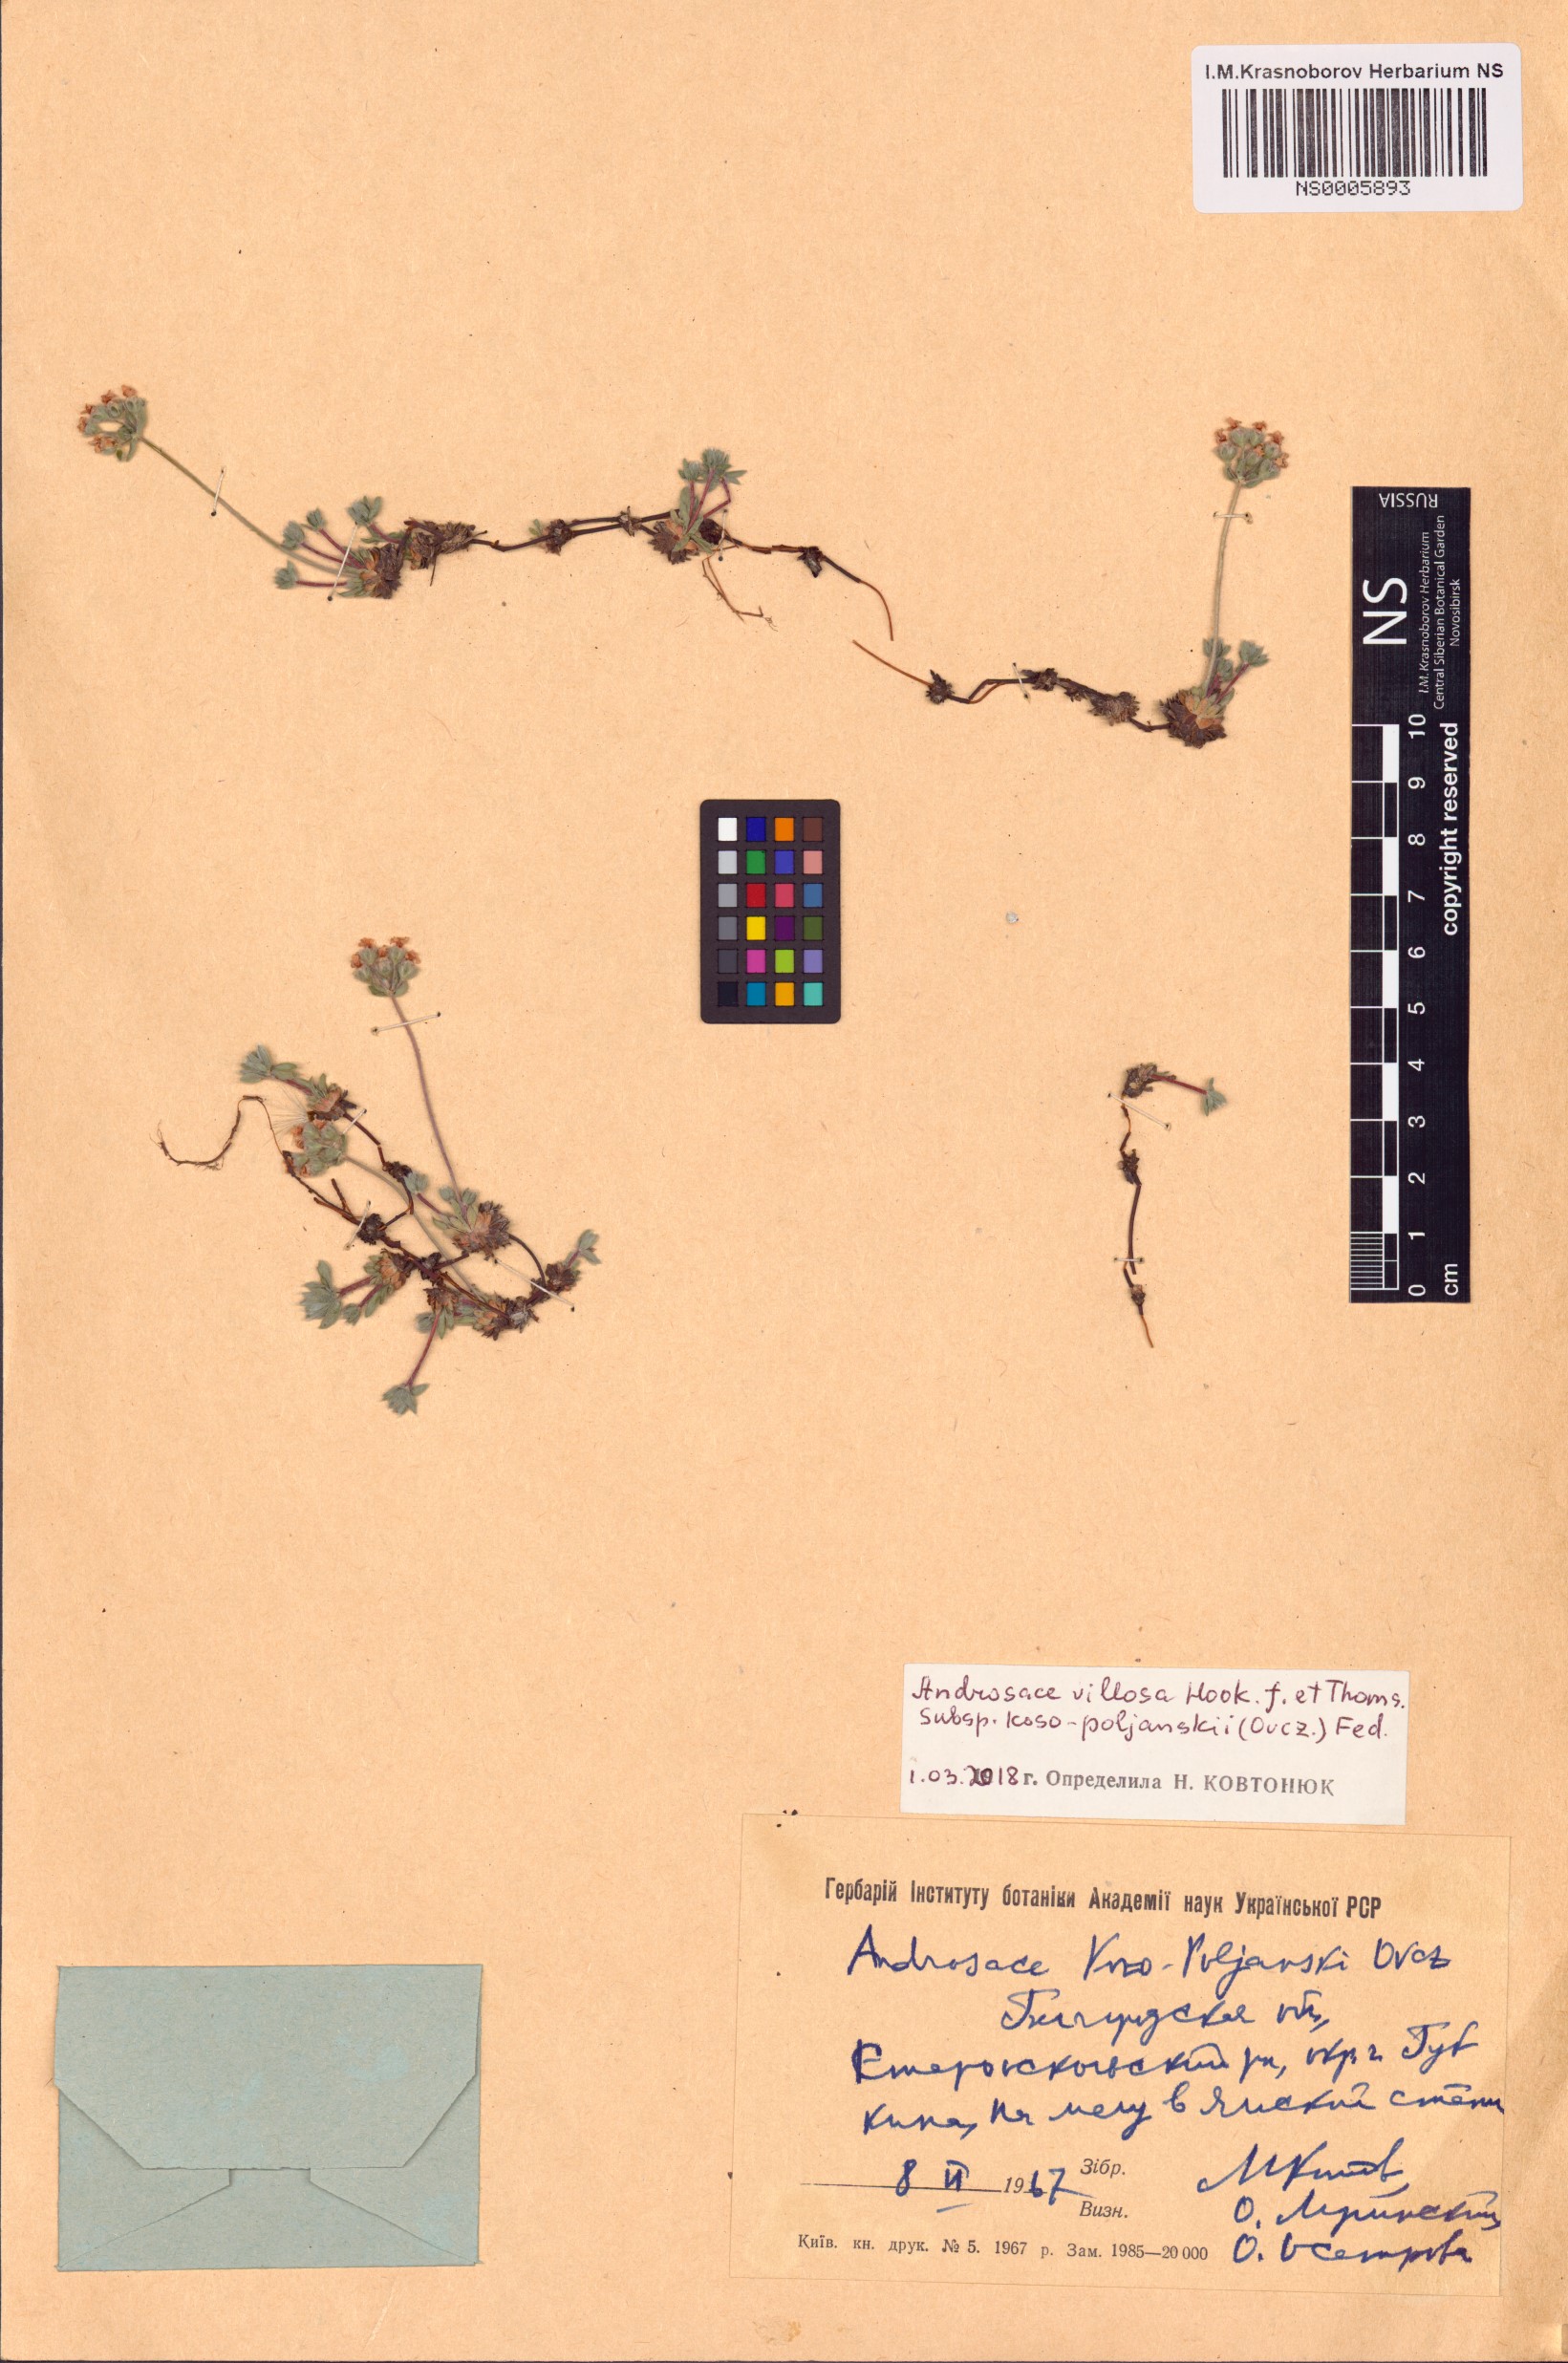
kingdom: Plantae
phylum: Tracheophyta
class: Magnoliopsida
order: Ericales
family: Primulaceae
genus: Androsace
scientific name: Androsace villosa
